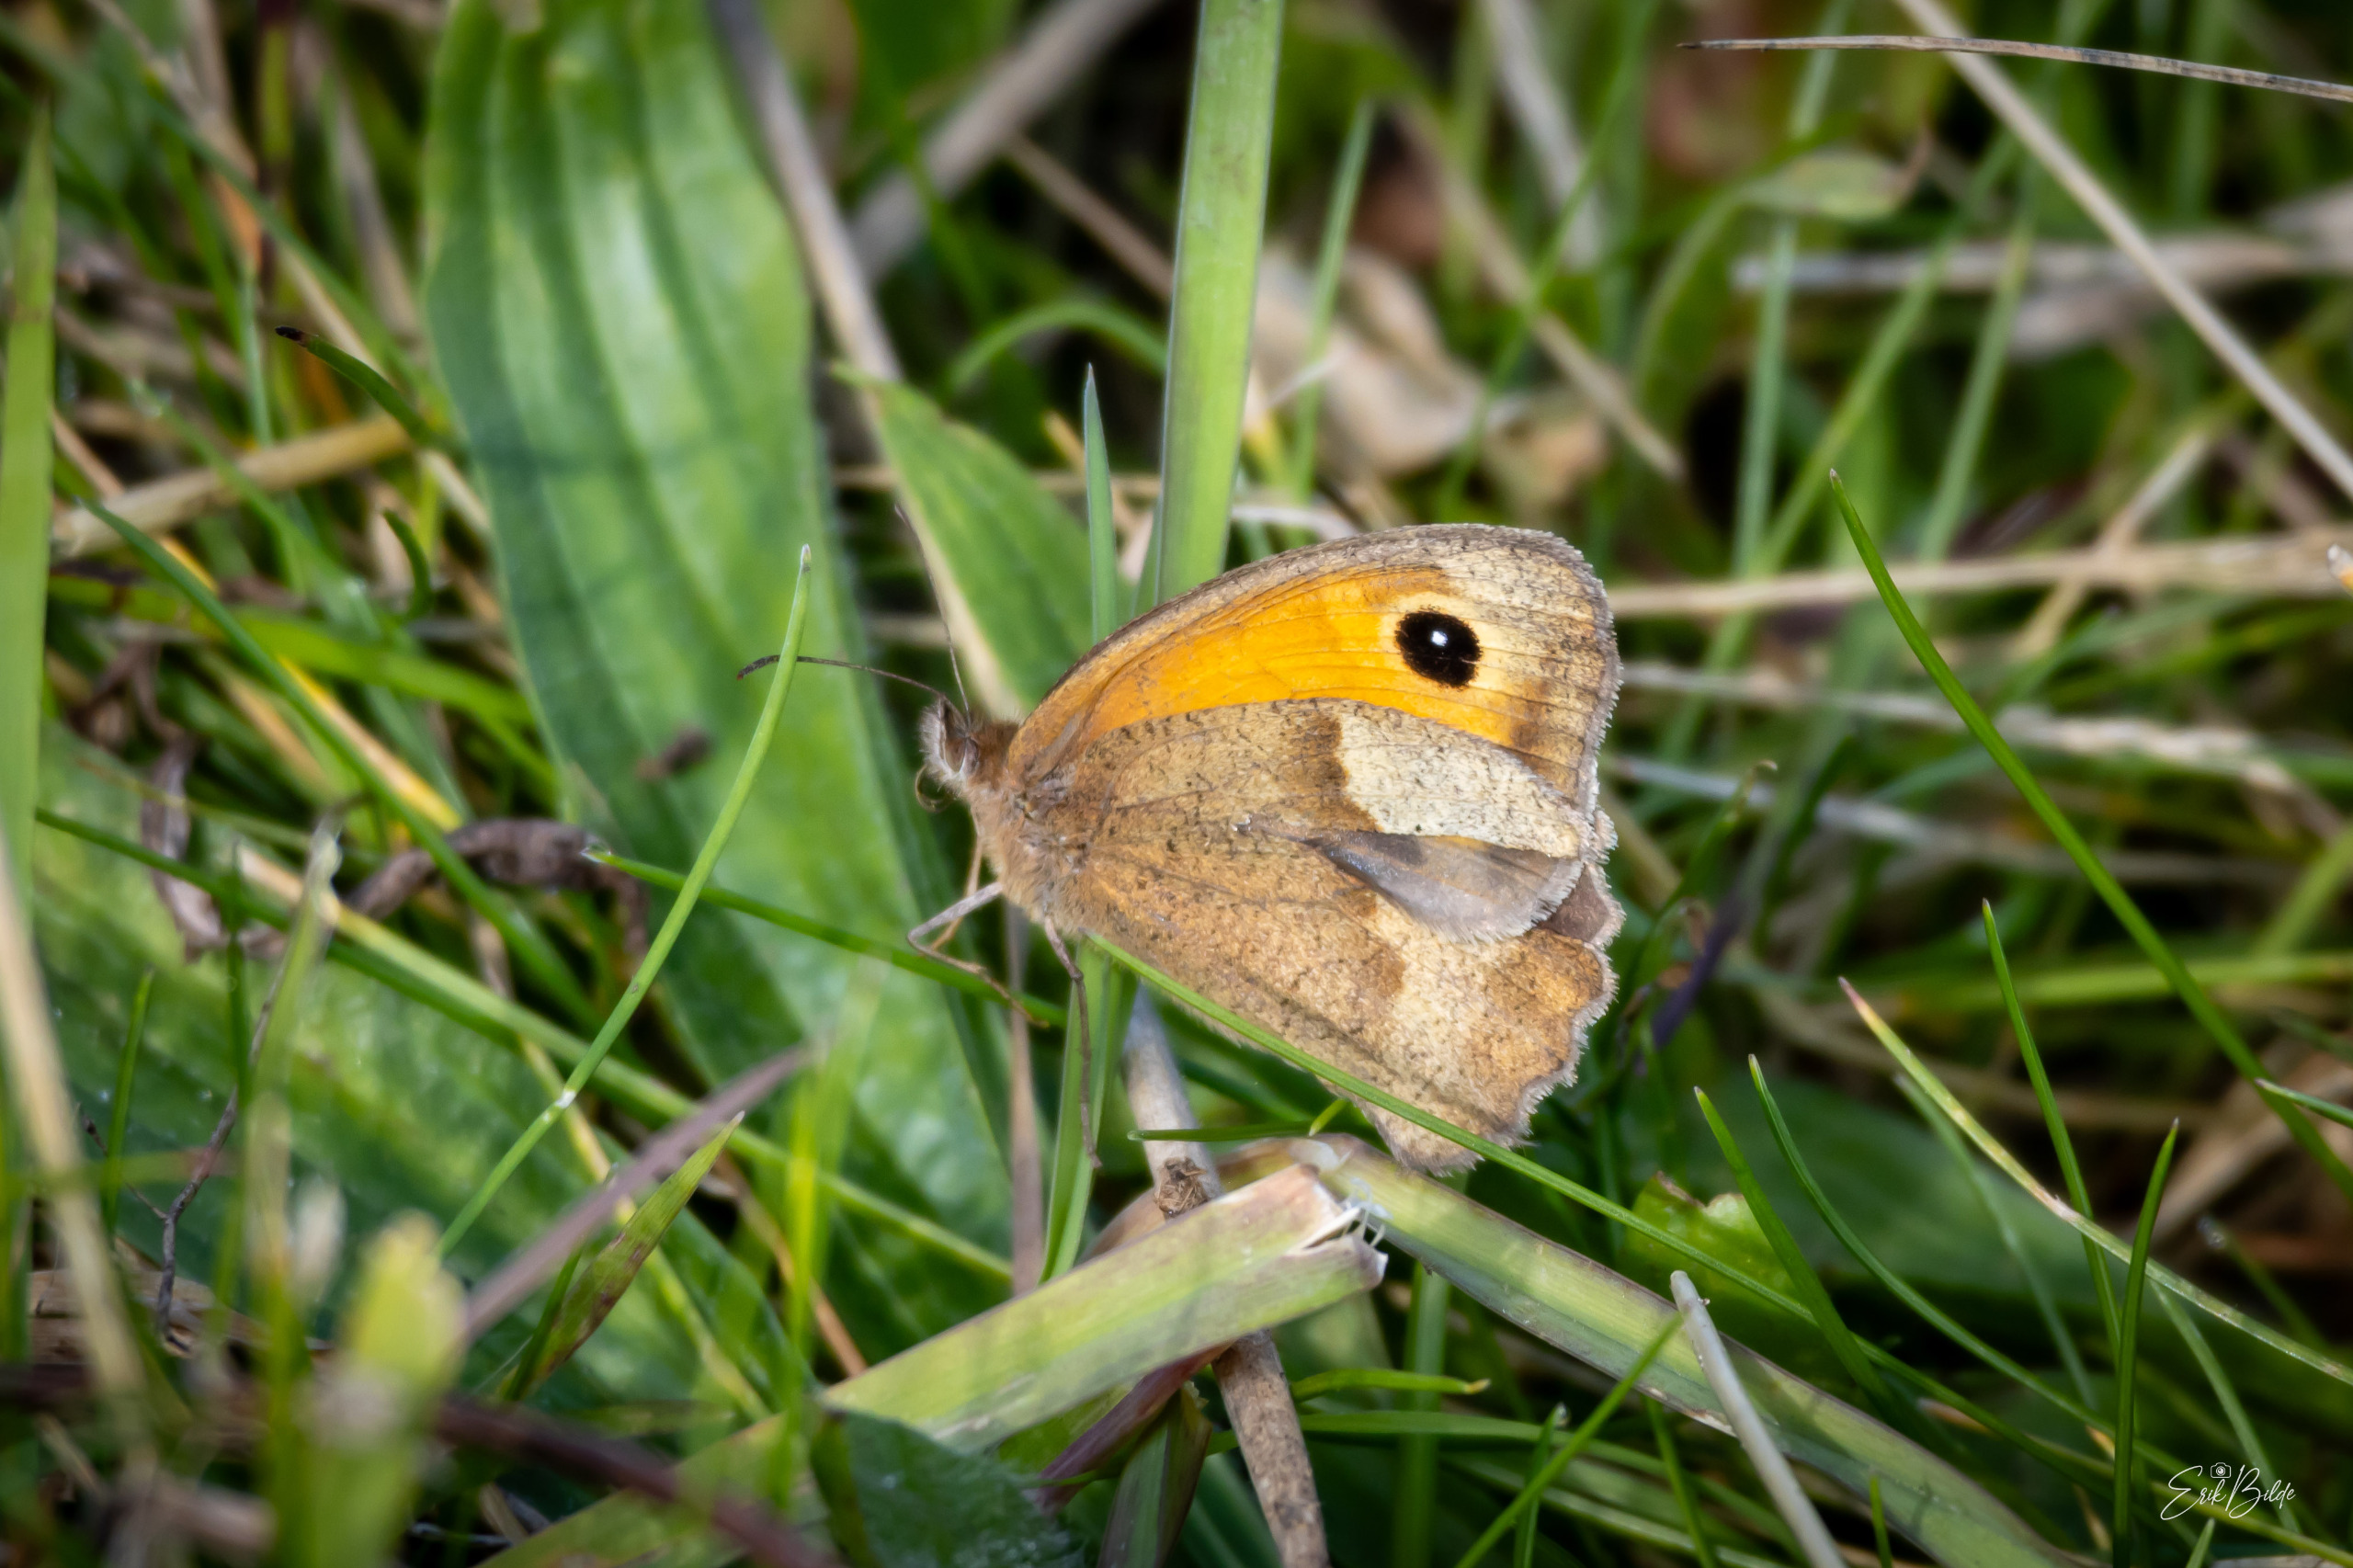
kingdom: Animalia
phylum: Arthropoda
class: Insecta
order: Lepidoptera
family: Nymphalidae
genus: Maniola
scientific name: Maniola jurtina
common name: Græsrandøje
